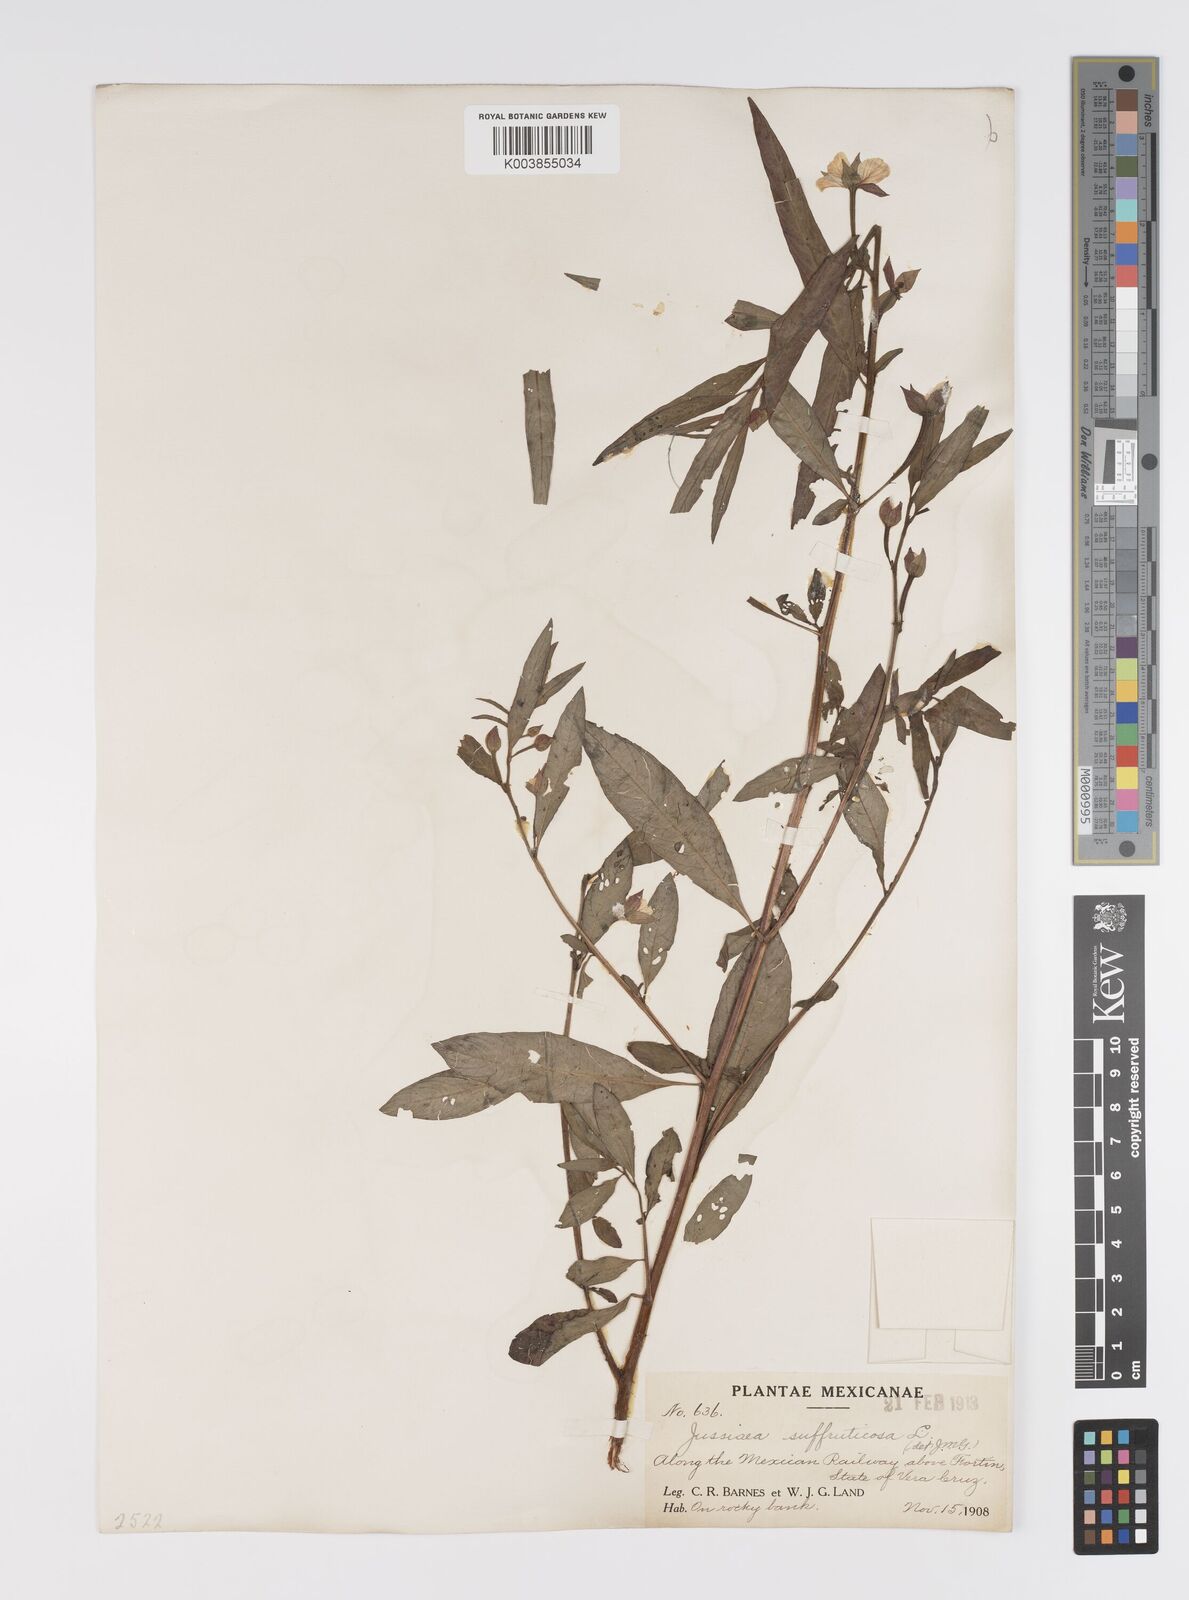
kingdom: Plantae
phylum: Tracheophyta
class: Magnoliopsida
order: Myrtales
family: Onagraceae
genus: Ludwigia
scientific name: Ludwigia octovalvis
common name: Water-primrose
